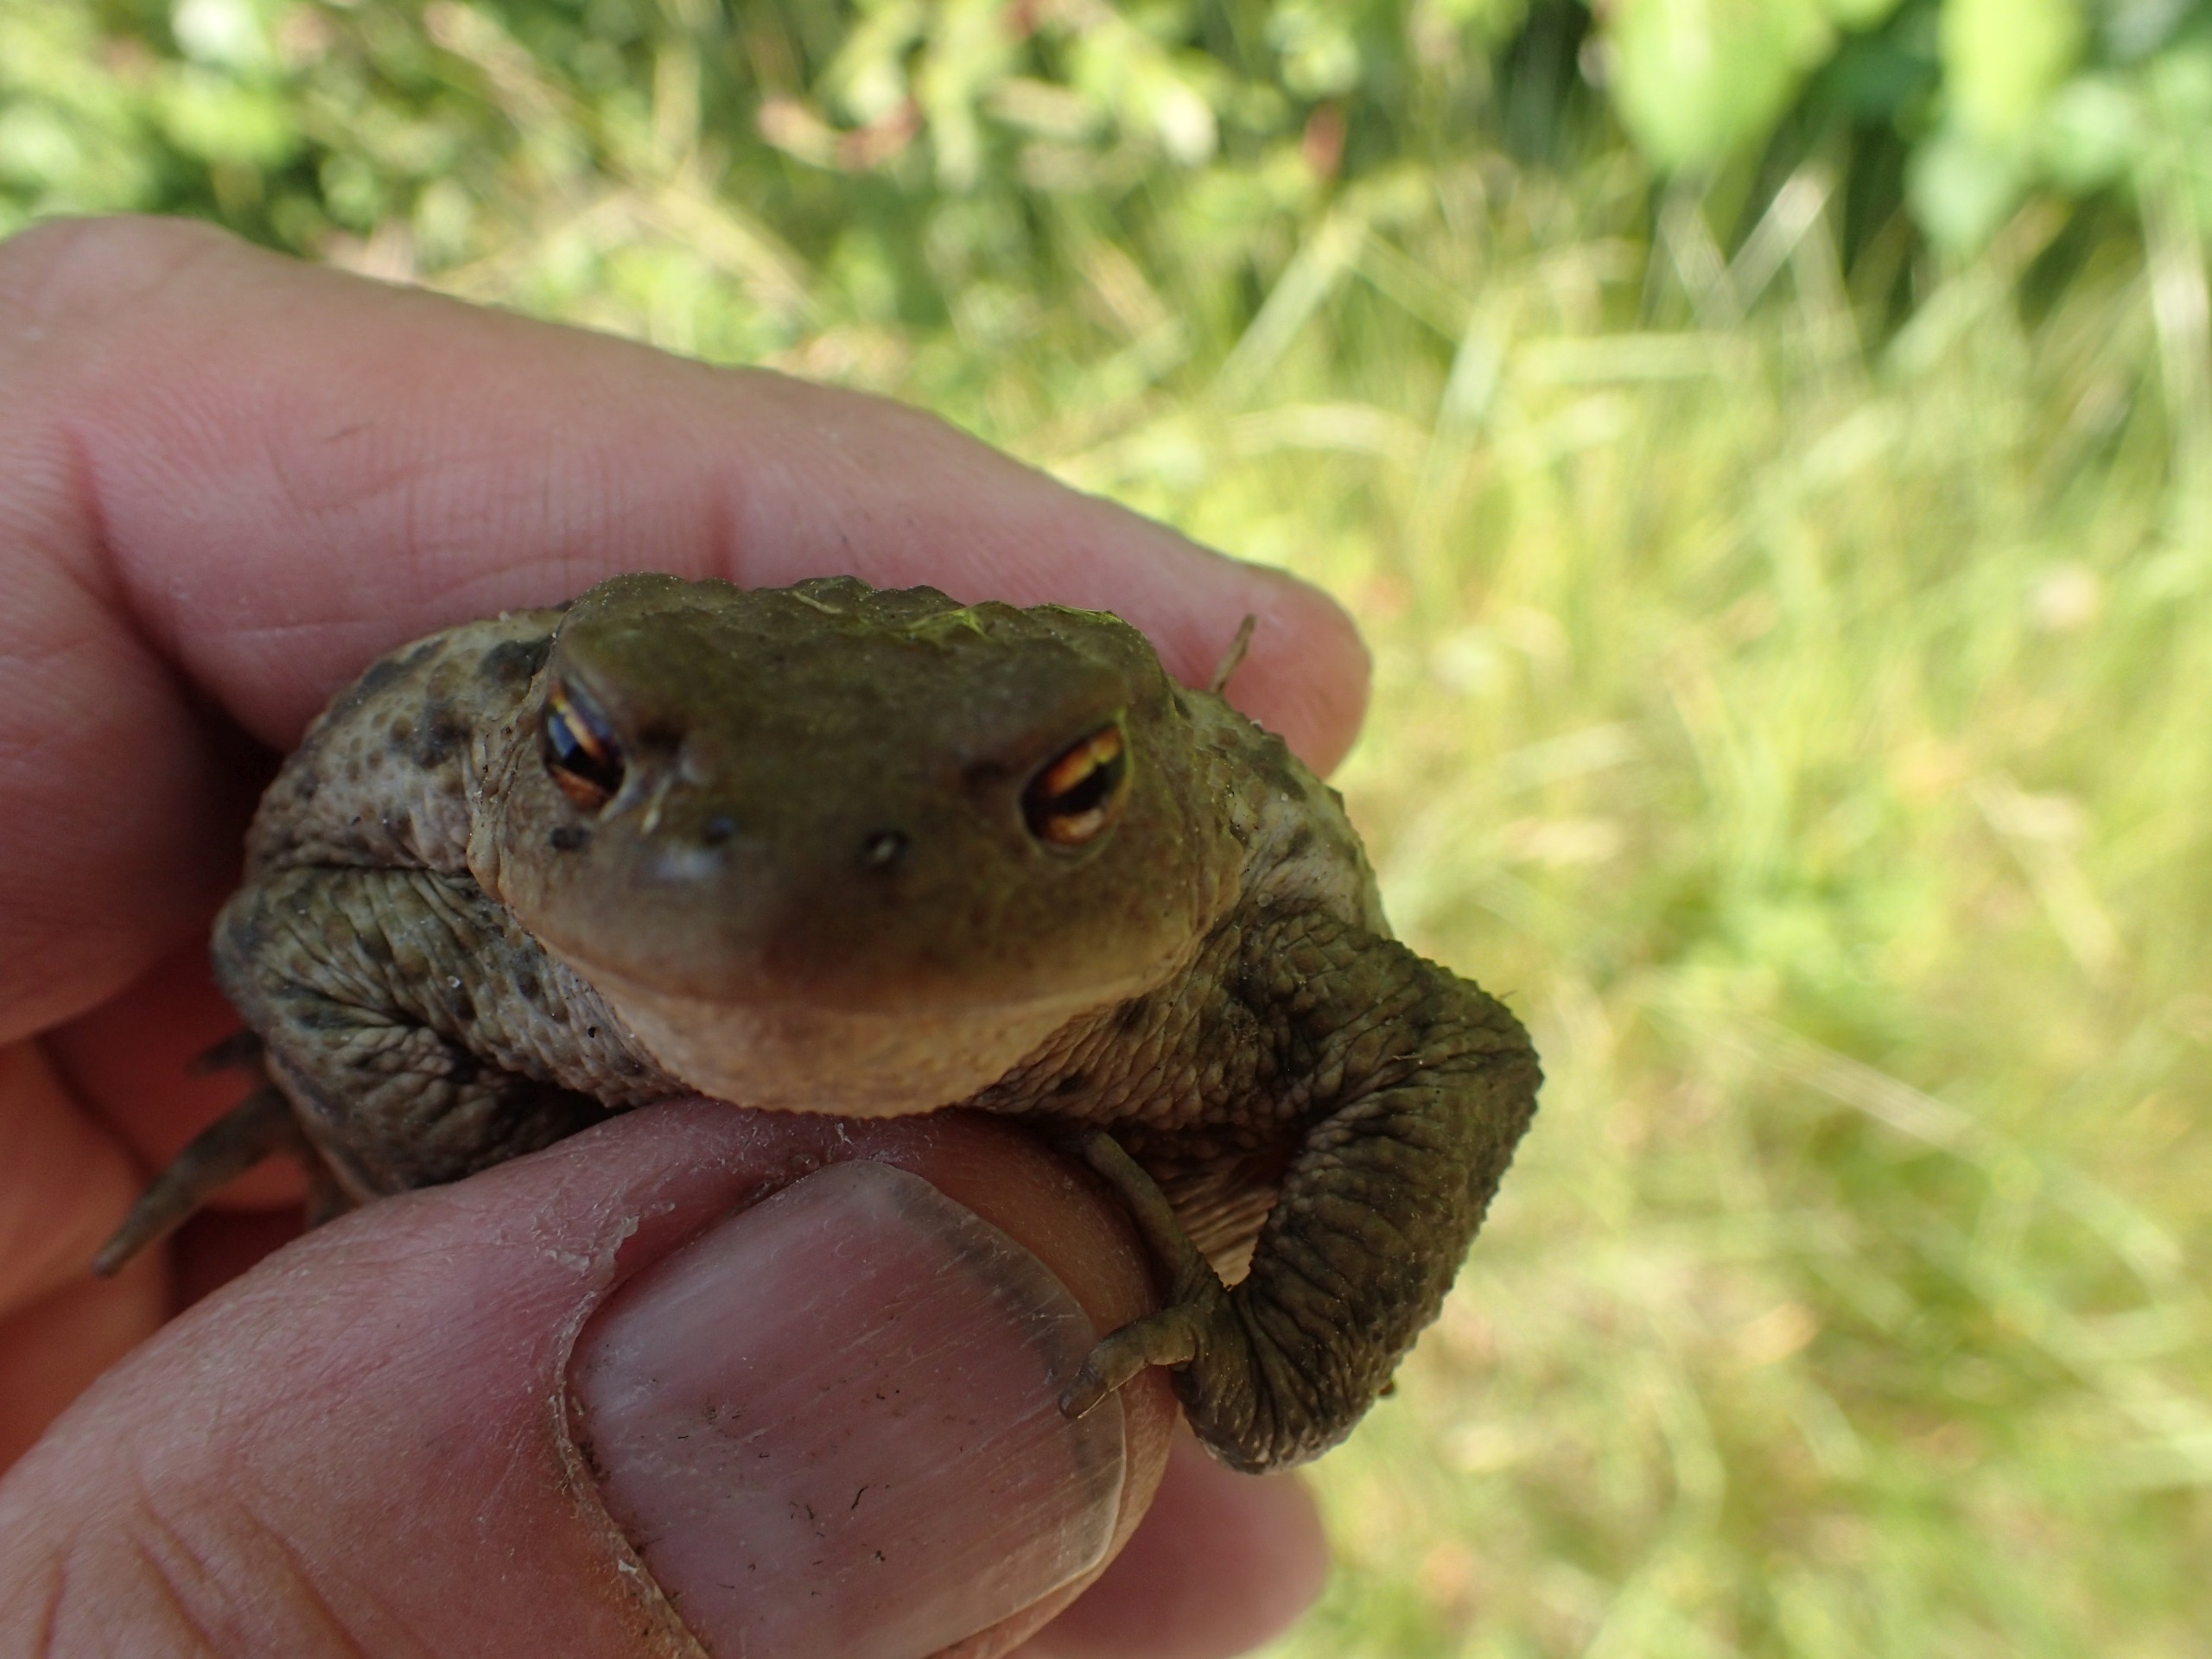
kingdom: Animalia
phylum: Chordata
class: Amphibia
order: Anura
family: Bufonidae
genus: Bufo
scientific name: Bufo bufo
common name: Skrubtudse
